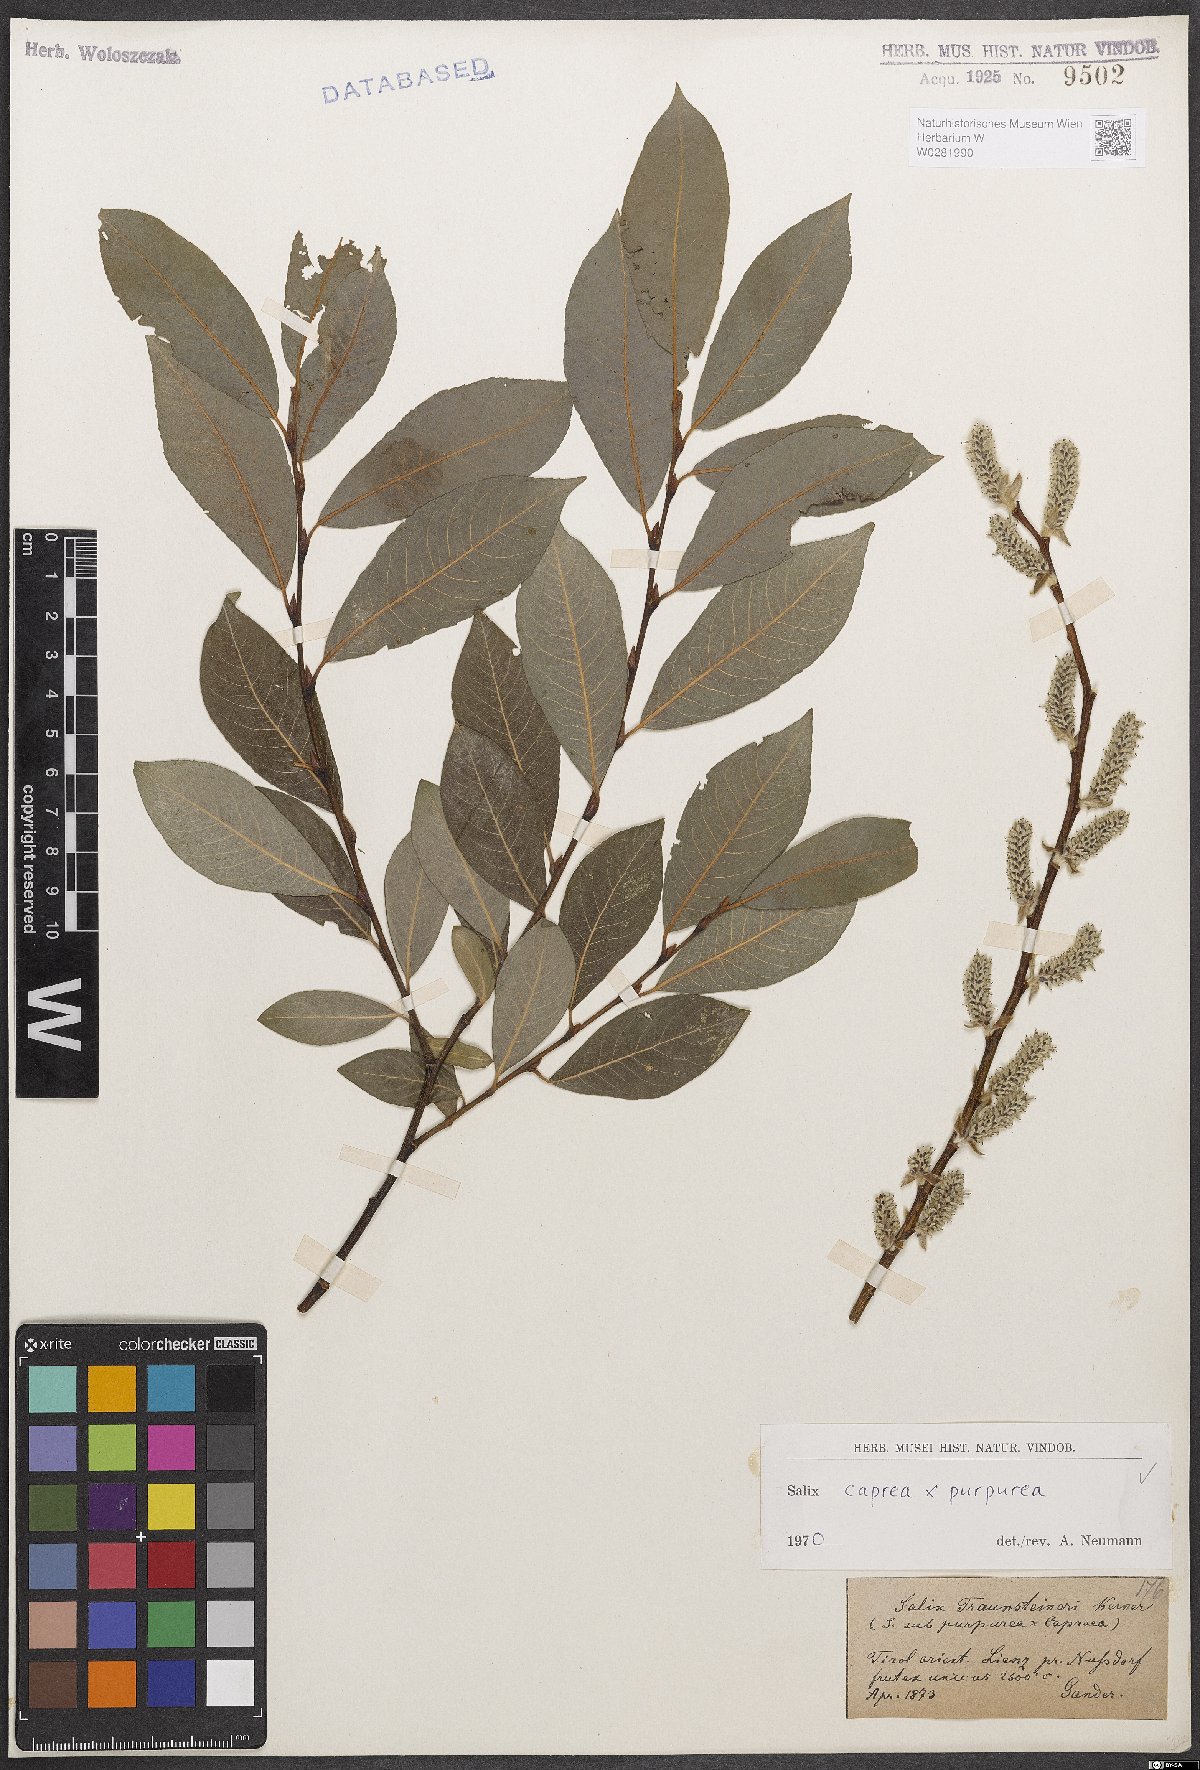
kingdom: Plantae
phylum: Tracheophyta
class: Magnoliopsida
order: Malpighiales
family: Salicaceae
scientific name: Salicaceae
